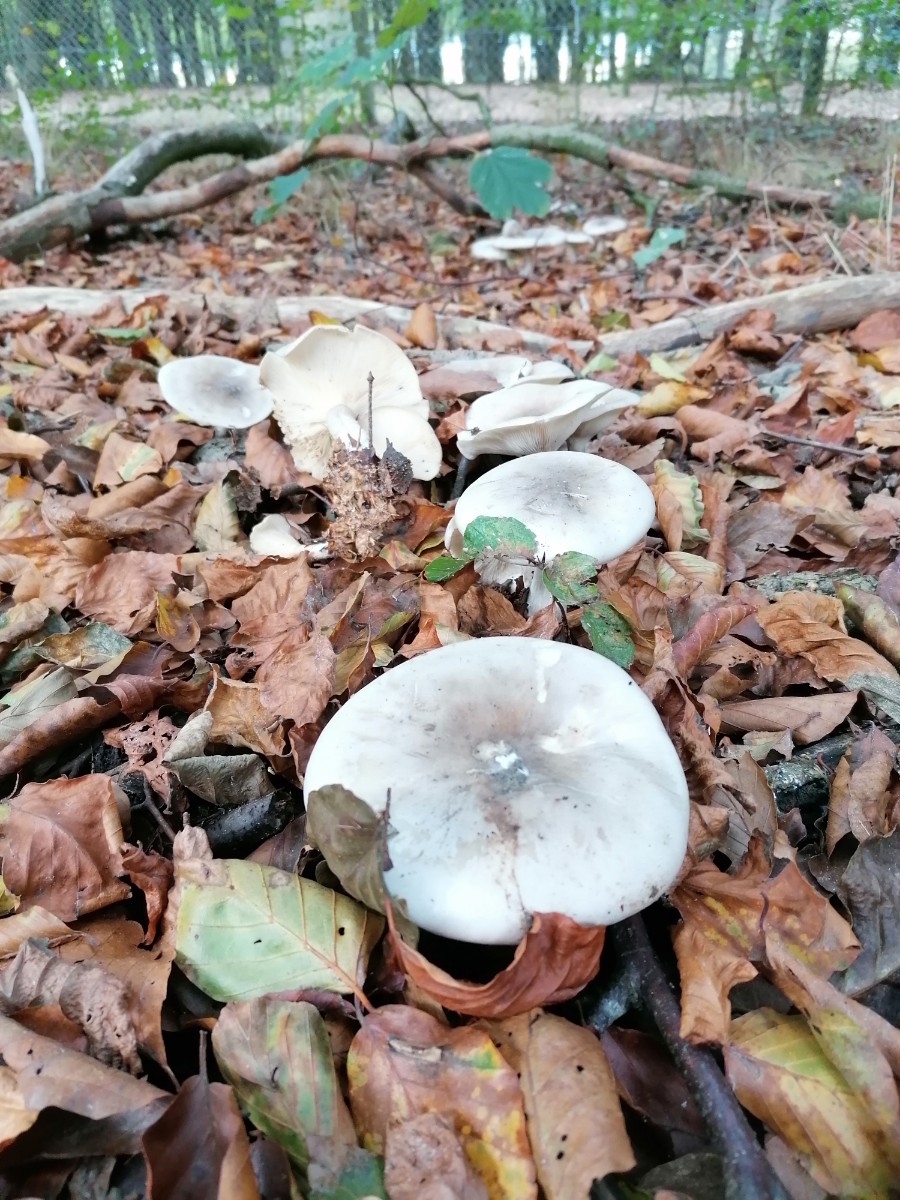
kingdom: Fungi
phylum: Basidiomycota
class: Agaricomycetes
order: Agaricales
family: Tricholomataceae
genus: Clitocybe
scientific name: Clitocybe nebularis
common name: tåge-tragthat
